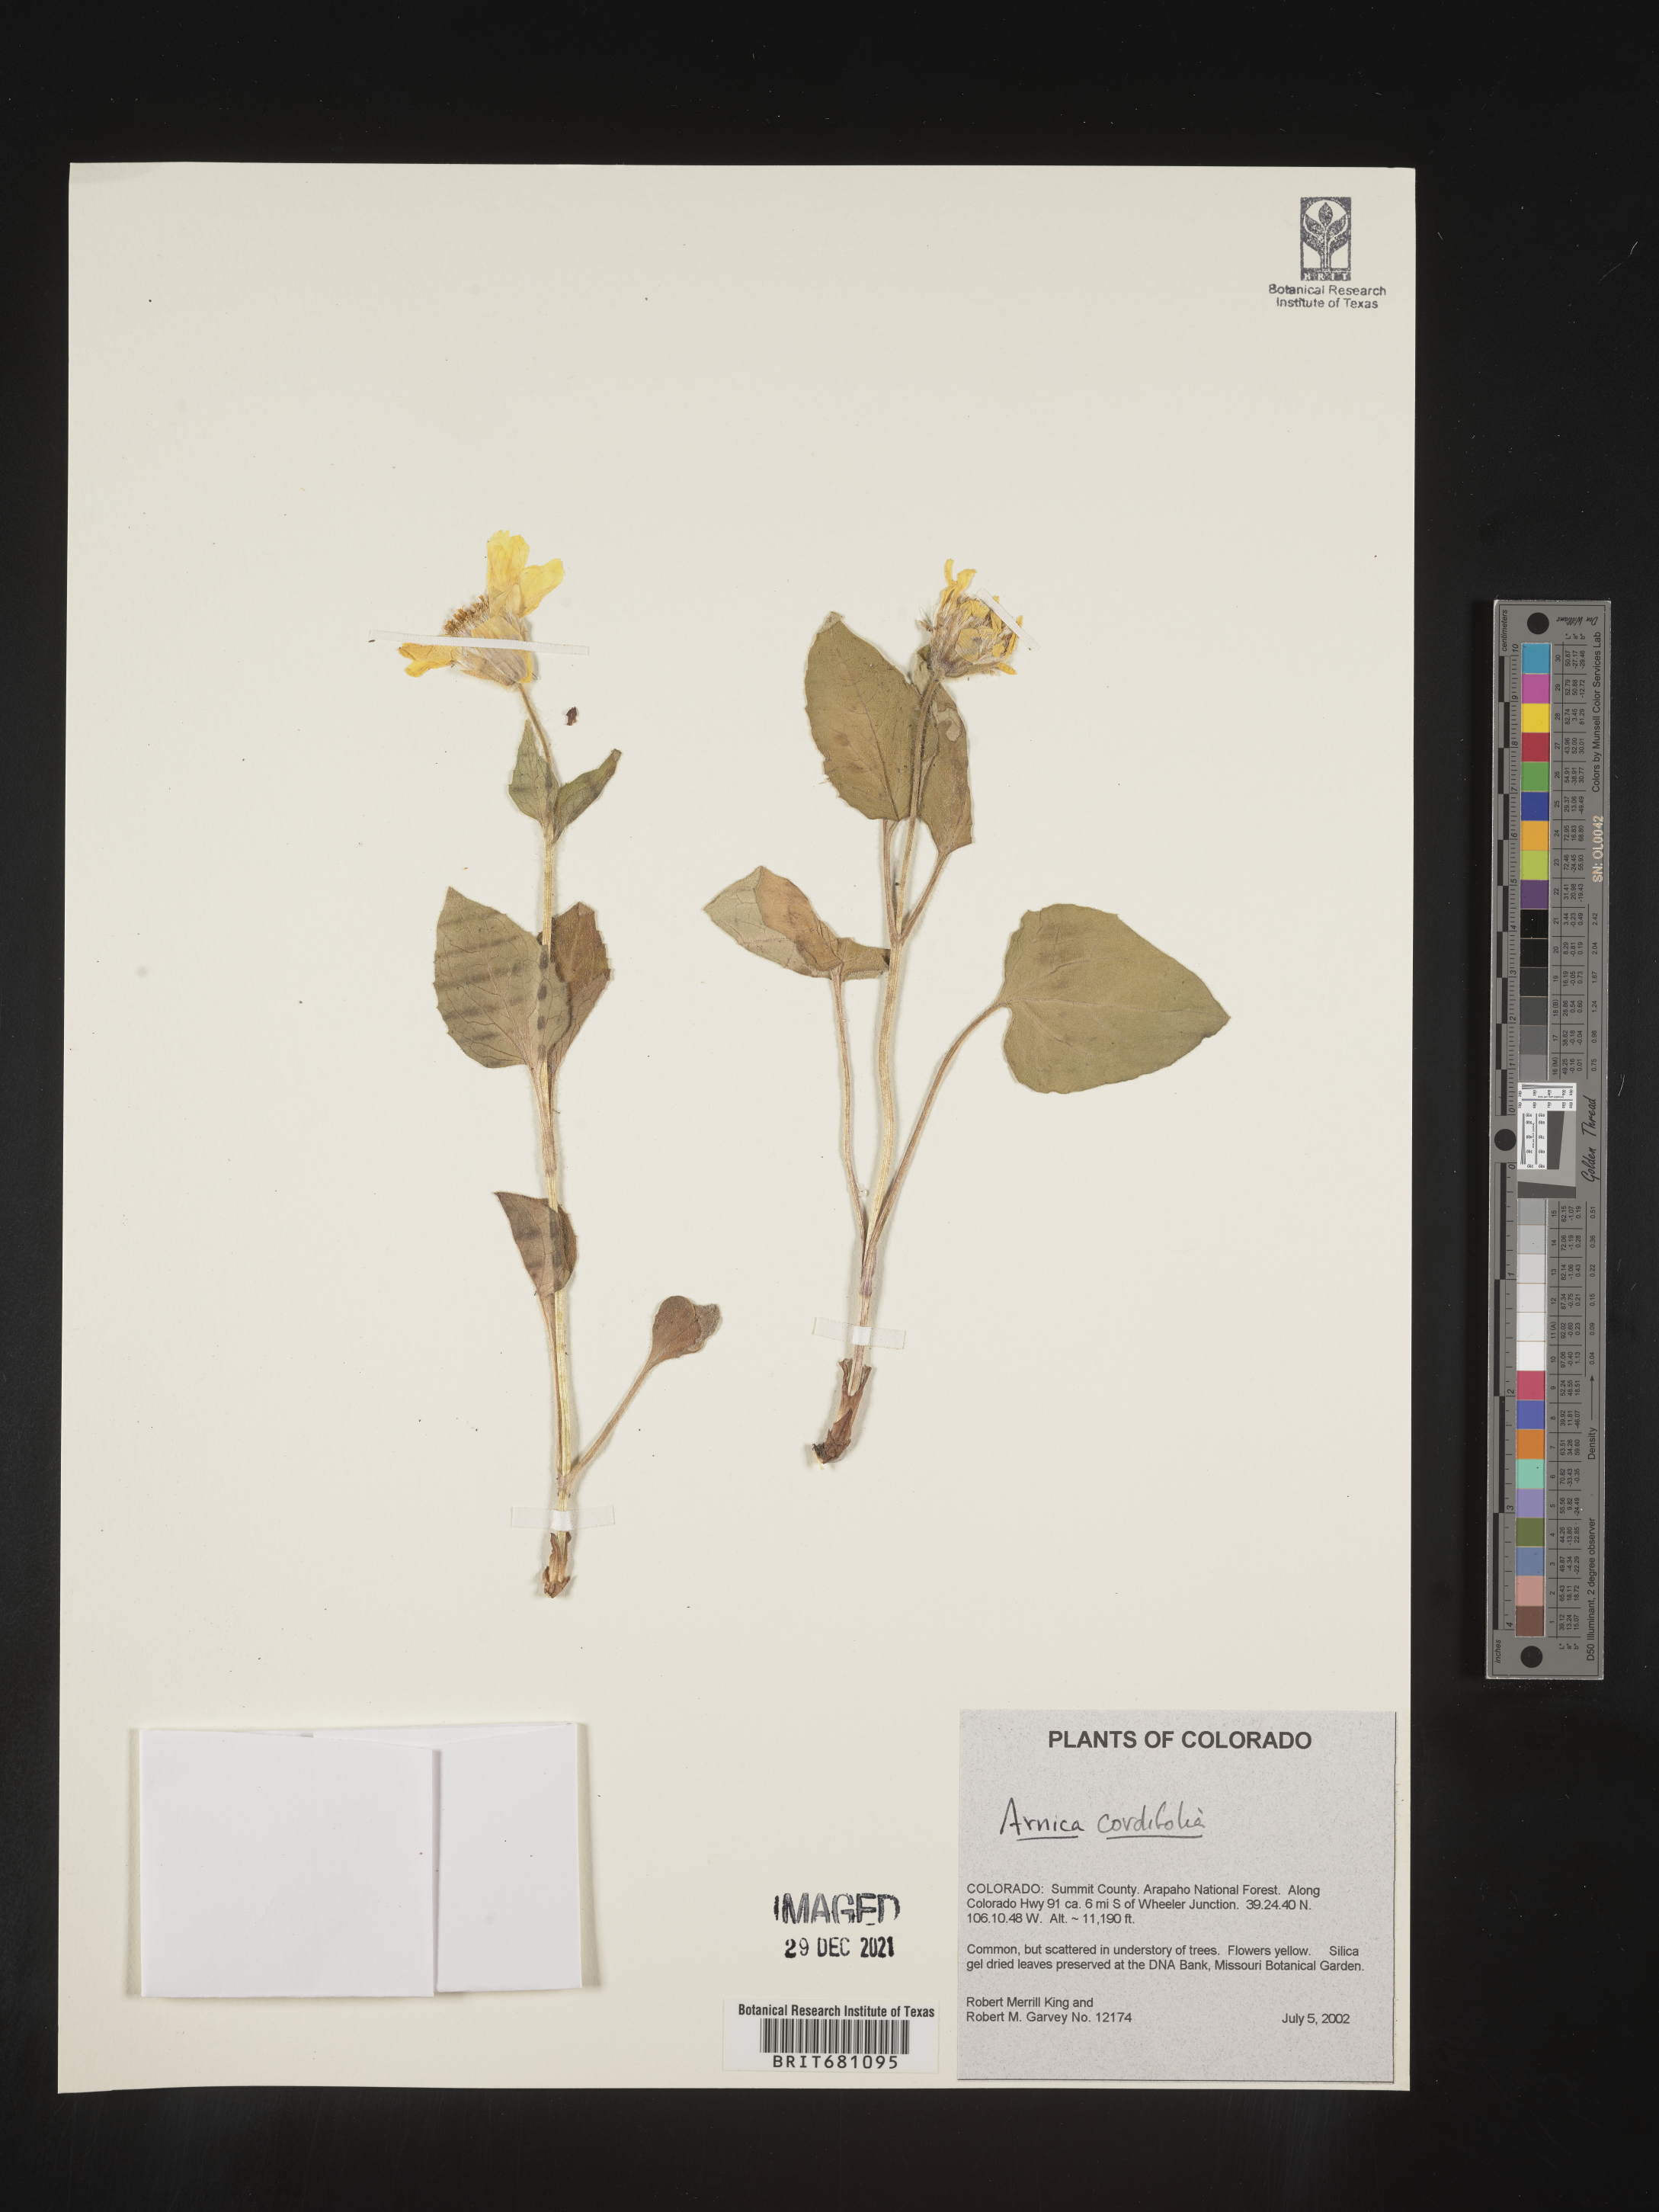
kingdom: Plantae
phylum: Tracheophyta
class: Magnoliopsida
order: Asterales
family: Asteraceae
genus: Arnica
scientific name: Arnica cordifolia
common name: Heart-leaf arnica
